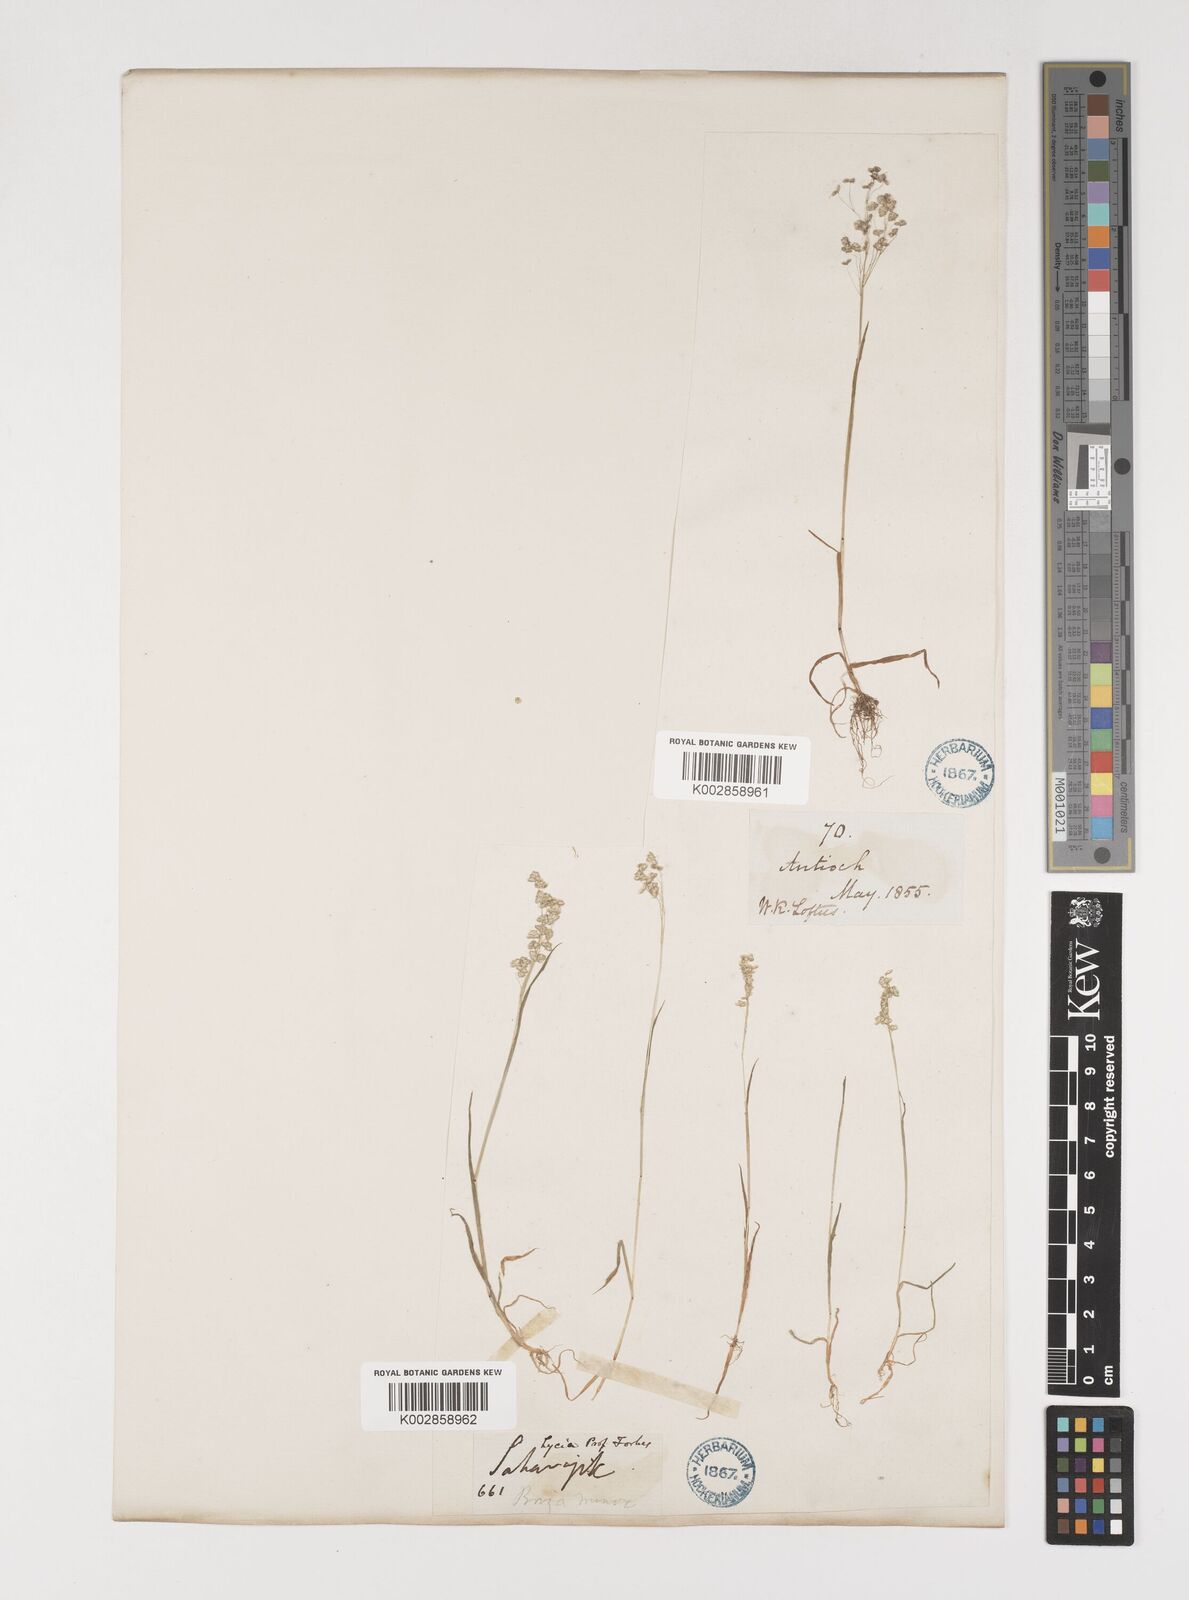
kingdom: Plantae
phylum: Tracheophyta
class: Liliopsida
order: Poales
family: Poaceae
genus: Briza
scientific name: Briza minor
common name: Lesser quaking-grass
